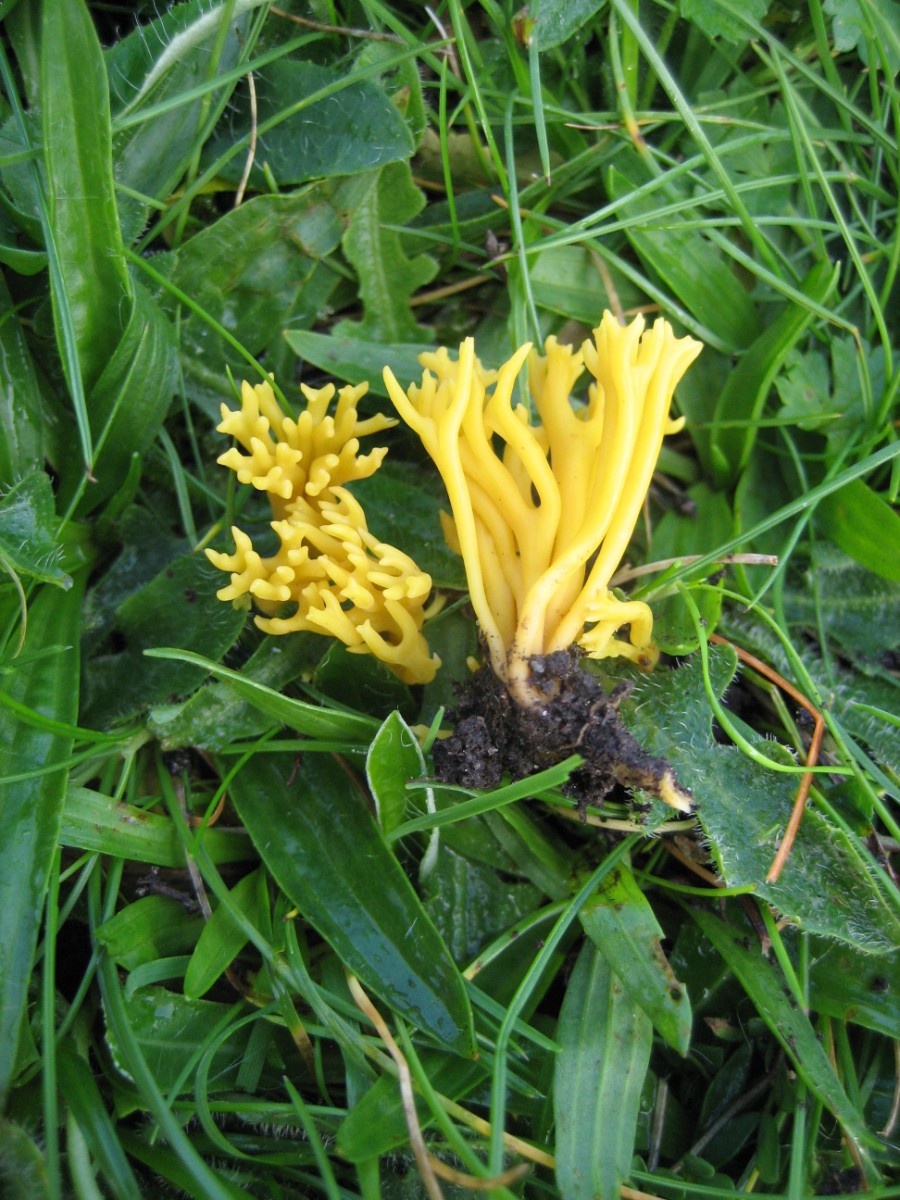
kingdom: Fungi
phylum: Basidiomycota
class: Agaricomycetes
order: Agaricales
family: Clavariaceae
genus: Clavulinopsis
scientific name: Clavulinopsis corniculata
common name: eng-køllesvamp
